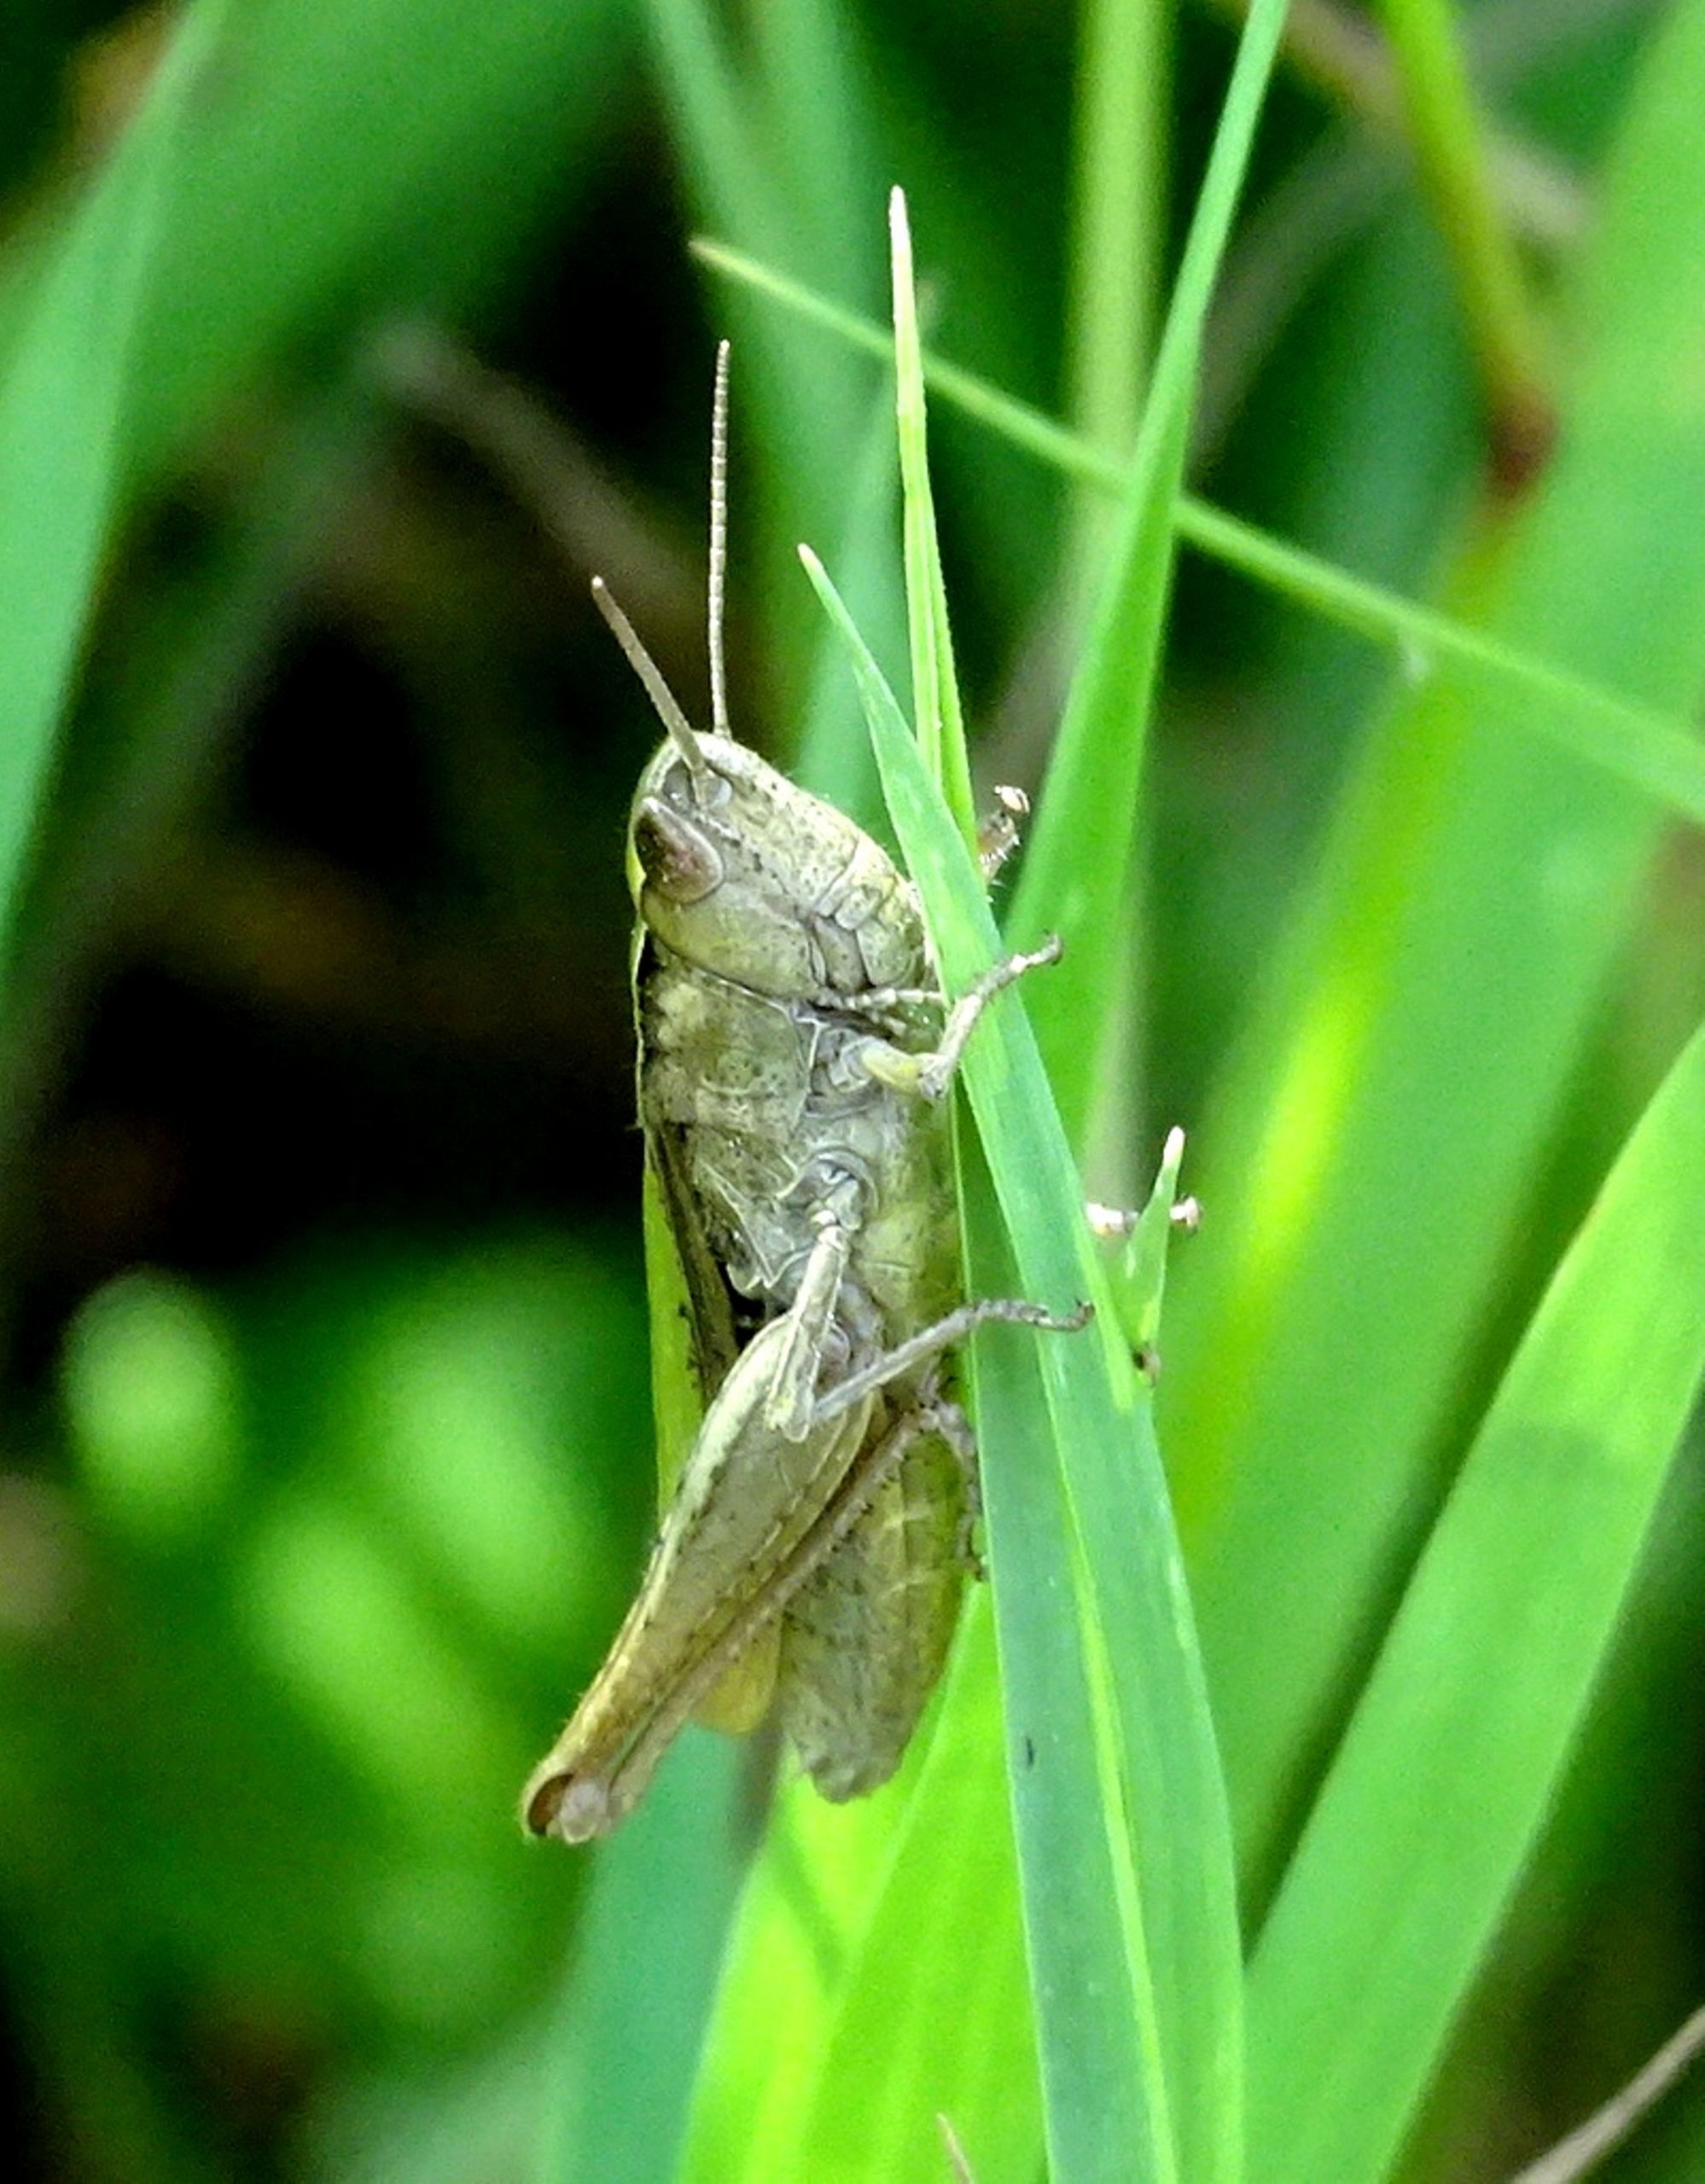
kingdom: Animalia
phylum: Arthropoda
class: Insecta
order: Orthoptera
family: Acrididae
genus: Chorthippus
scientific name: Chorthippus dorsatus
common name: Stor enggræshoppe
